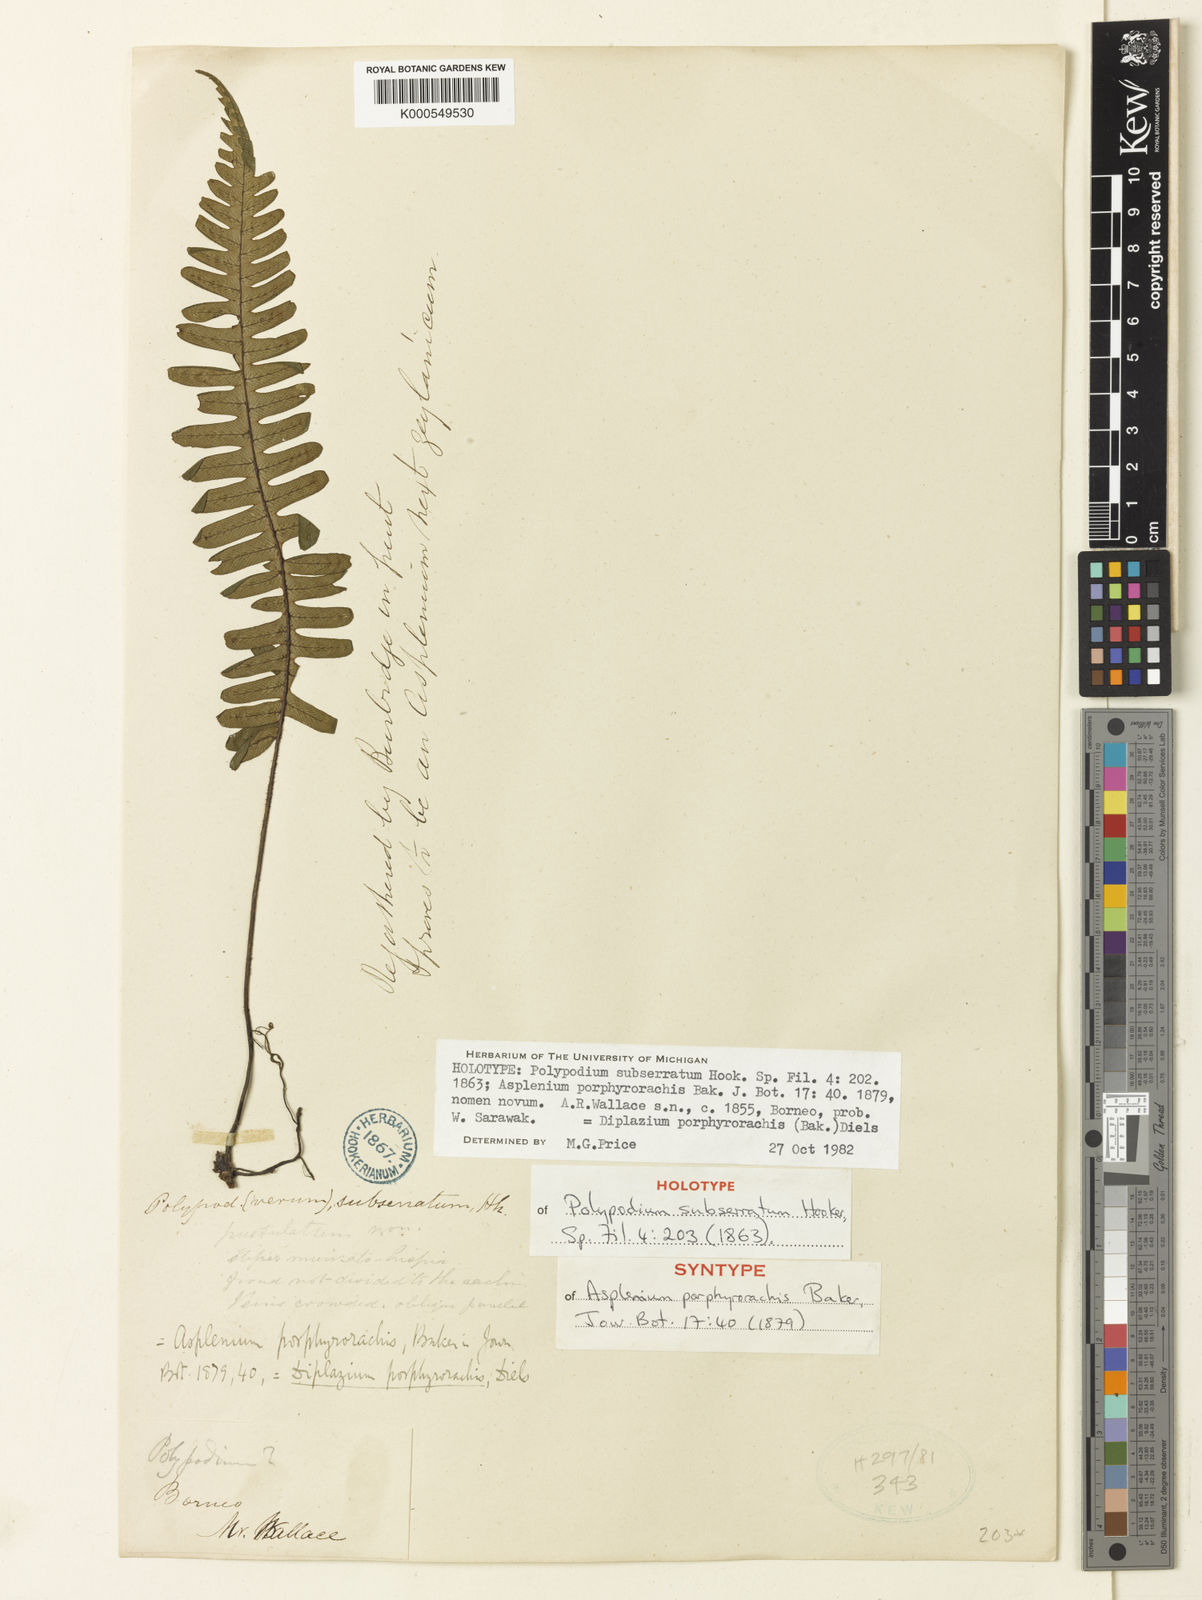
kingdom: Plantae
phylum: Tracheophyta
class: Polypodiopsida
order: Polypodiales
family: Athyriaceae
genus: Diplazium
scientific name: Diplazium porphyrorachis
